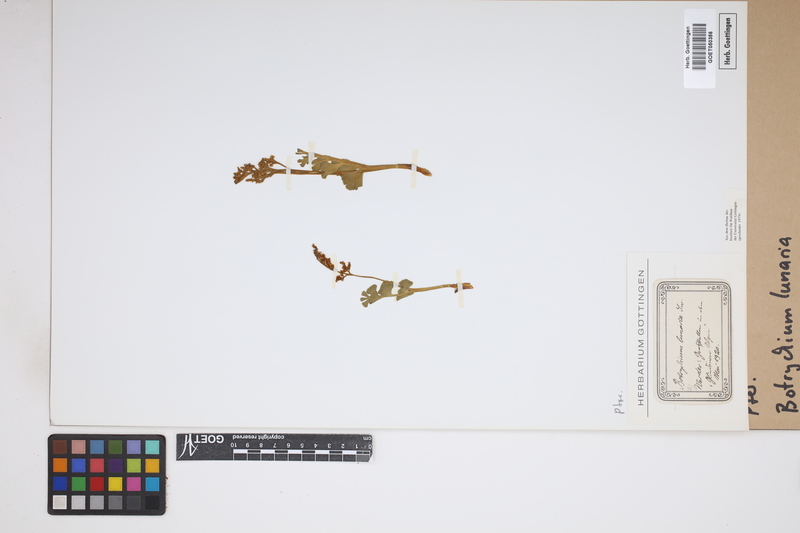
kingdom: Plantae
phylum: Tracheophyta
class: Polypodiopsida
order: Ophioglossales
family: Ophioglossaceae
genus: Botrychium
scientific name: Botrychium lunaria
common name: Moonwort
